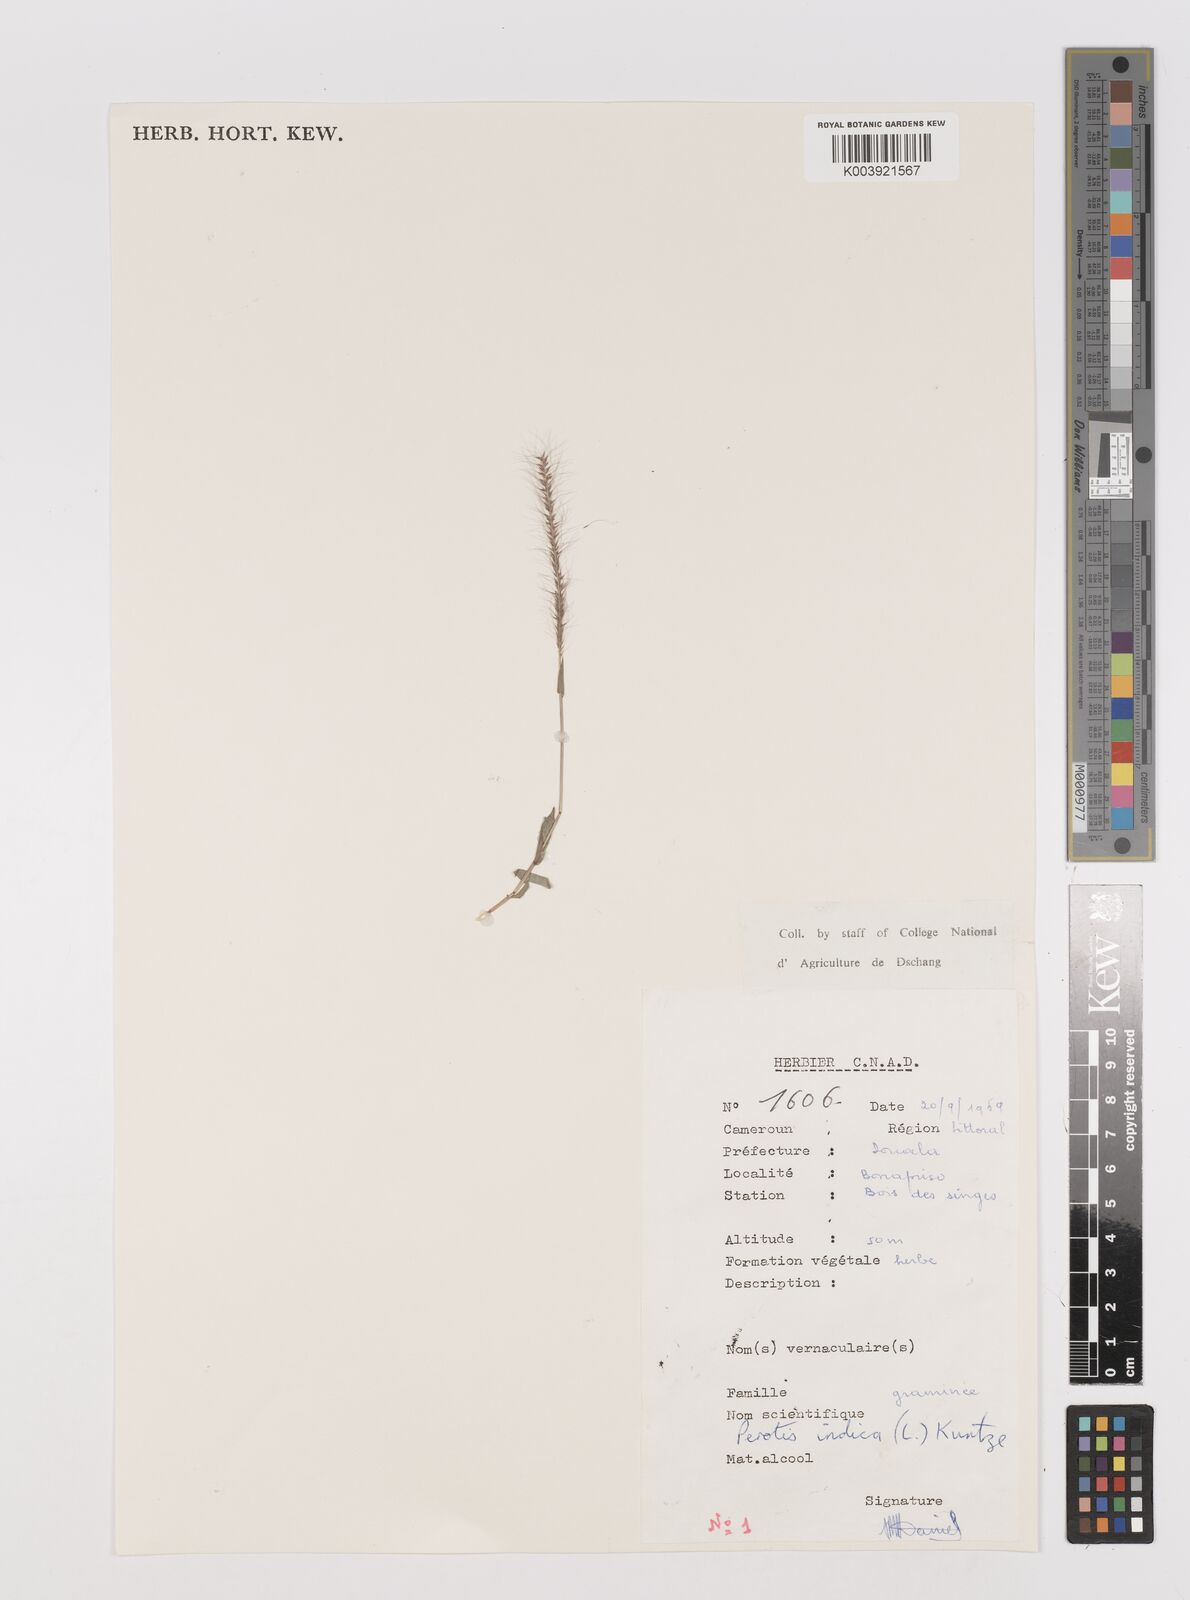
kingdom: Plantae
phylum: Tracheophyta
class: Liliopsida
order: Poales
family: Poaceae
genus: Perotis
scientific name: Perotis indica
